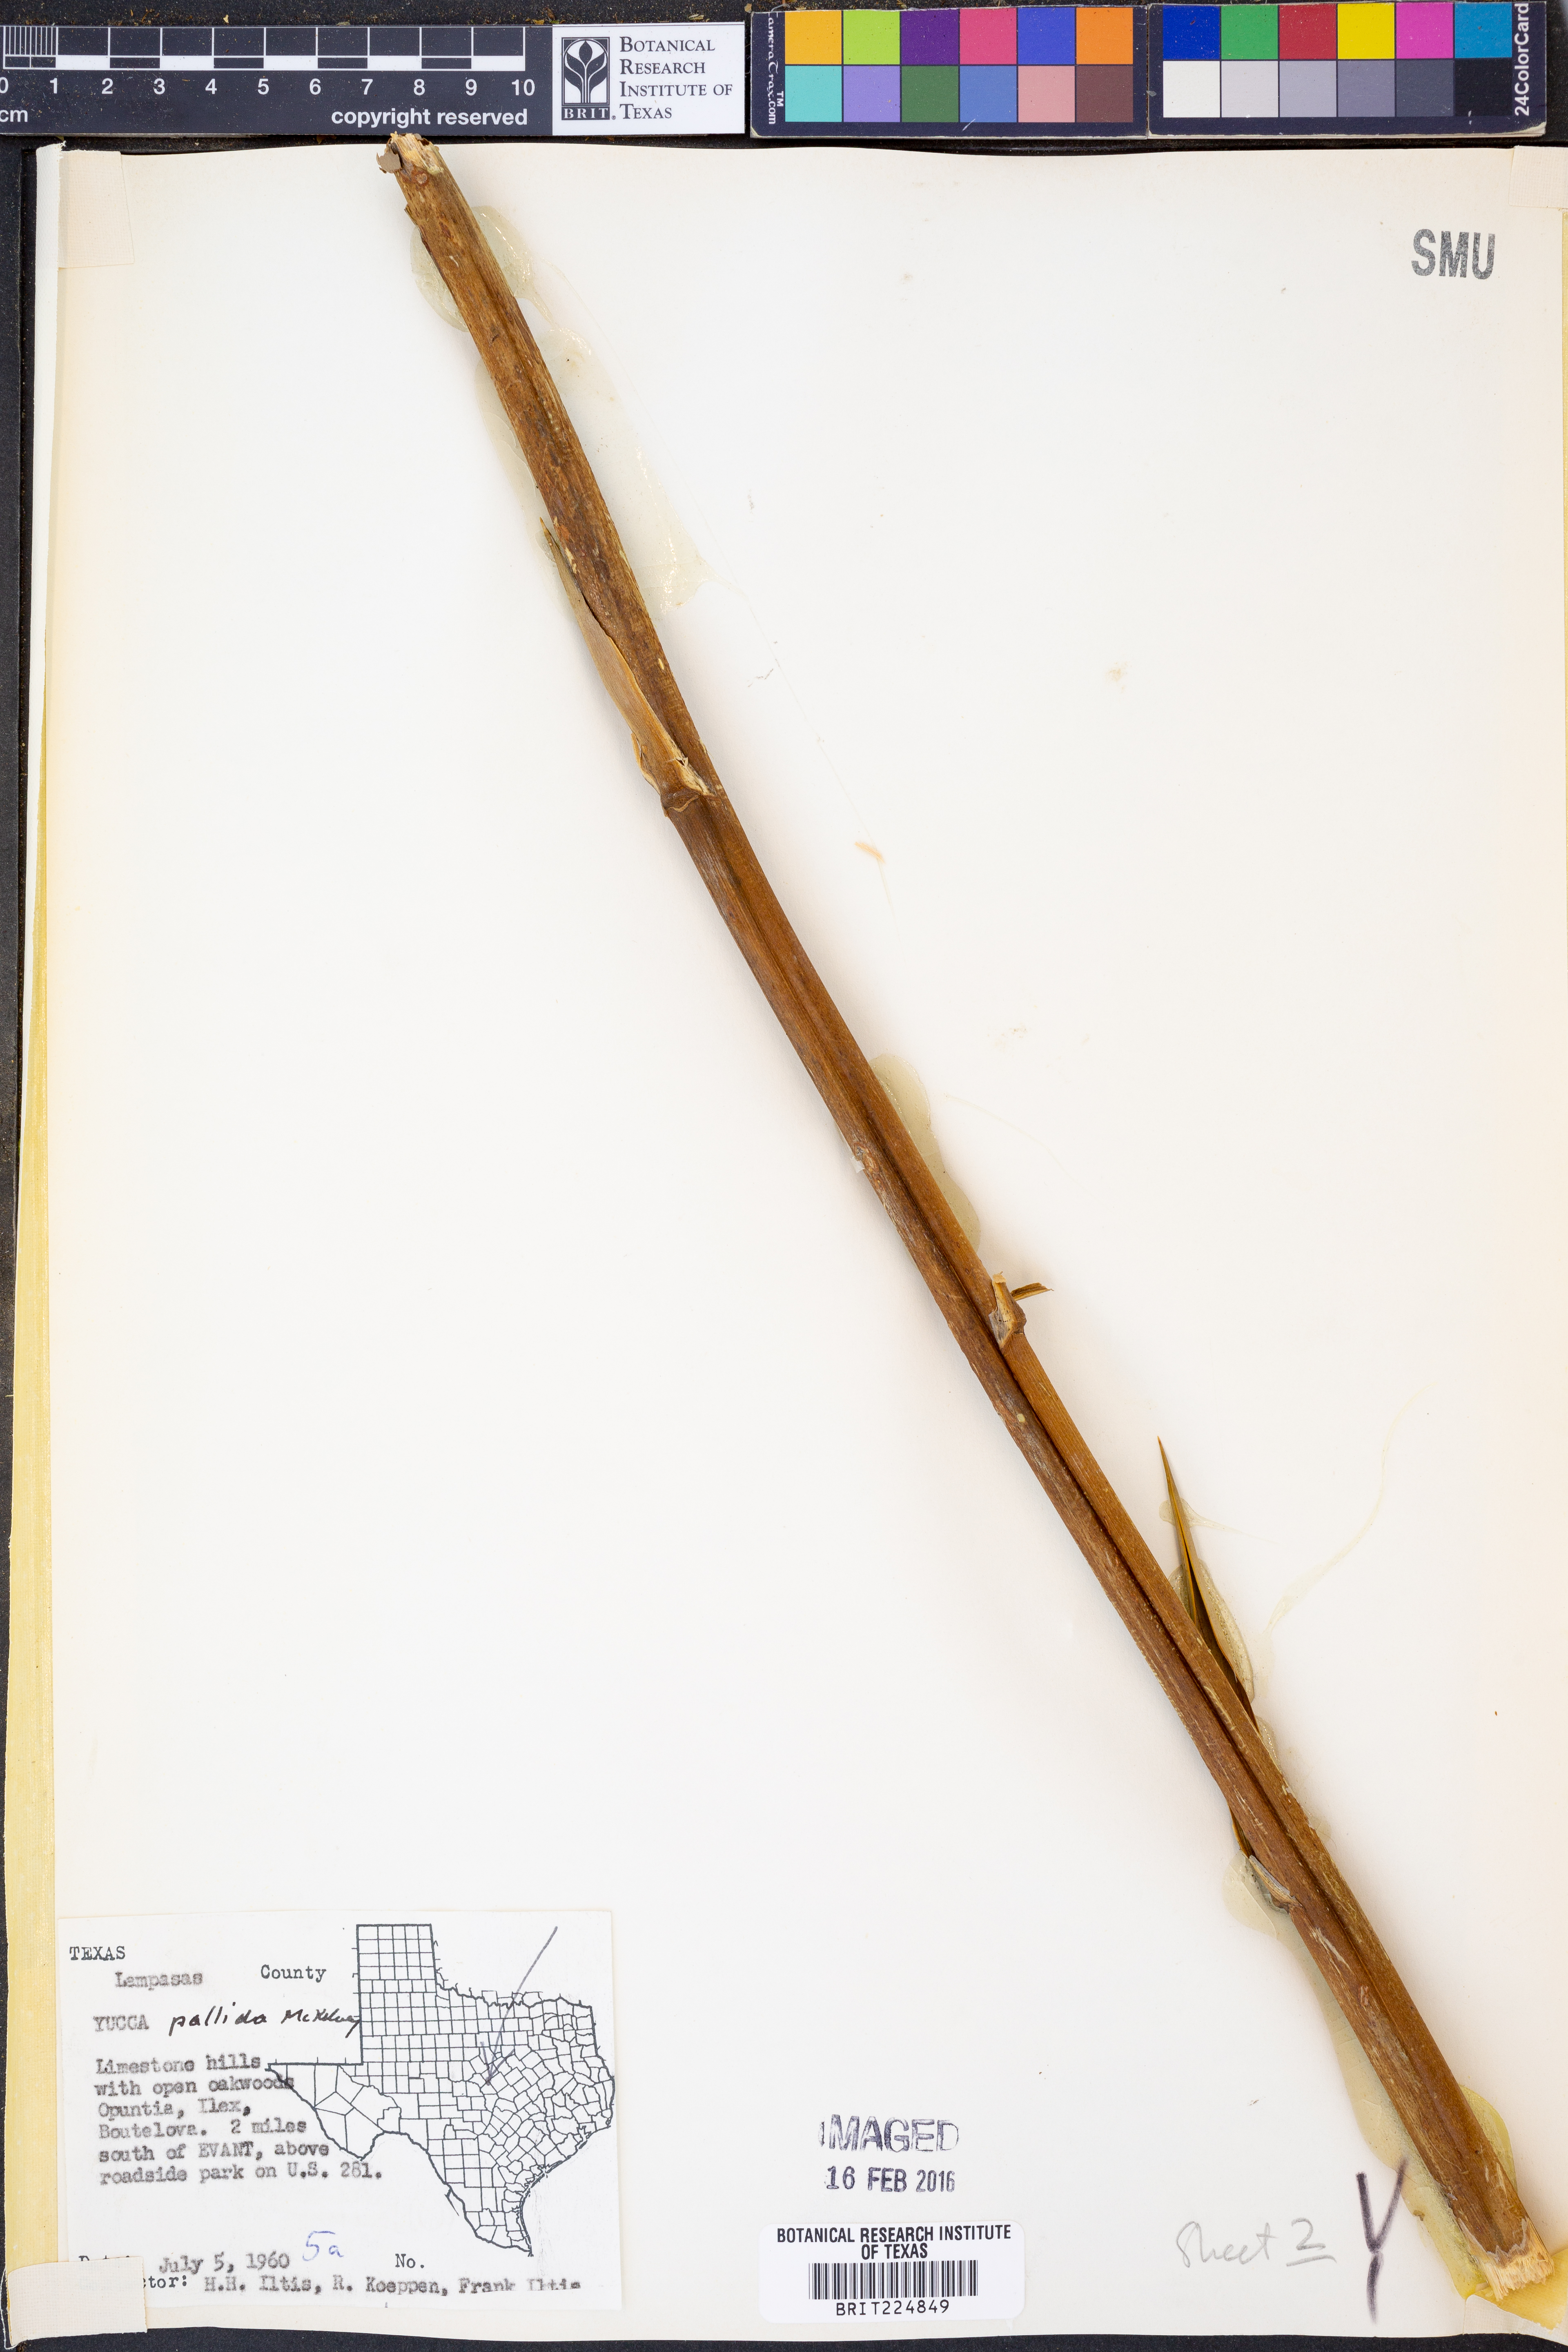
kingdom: Plantae
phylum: Tracheophyta
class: Liliopsida
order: Asparagales
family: Asparagaceae
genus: Yucca
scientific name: Yucca pallida
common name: Pale leaf yucca
